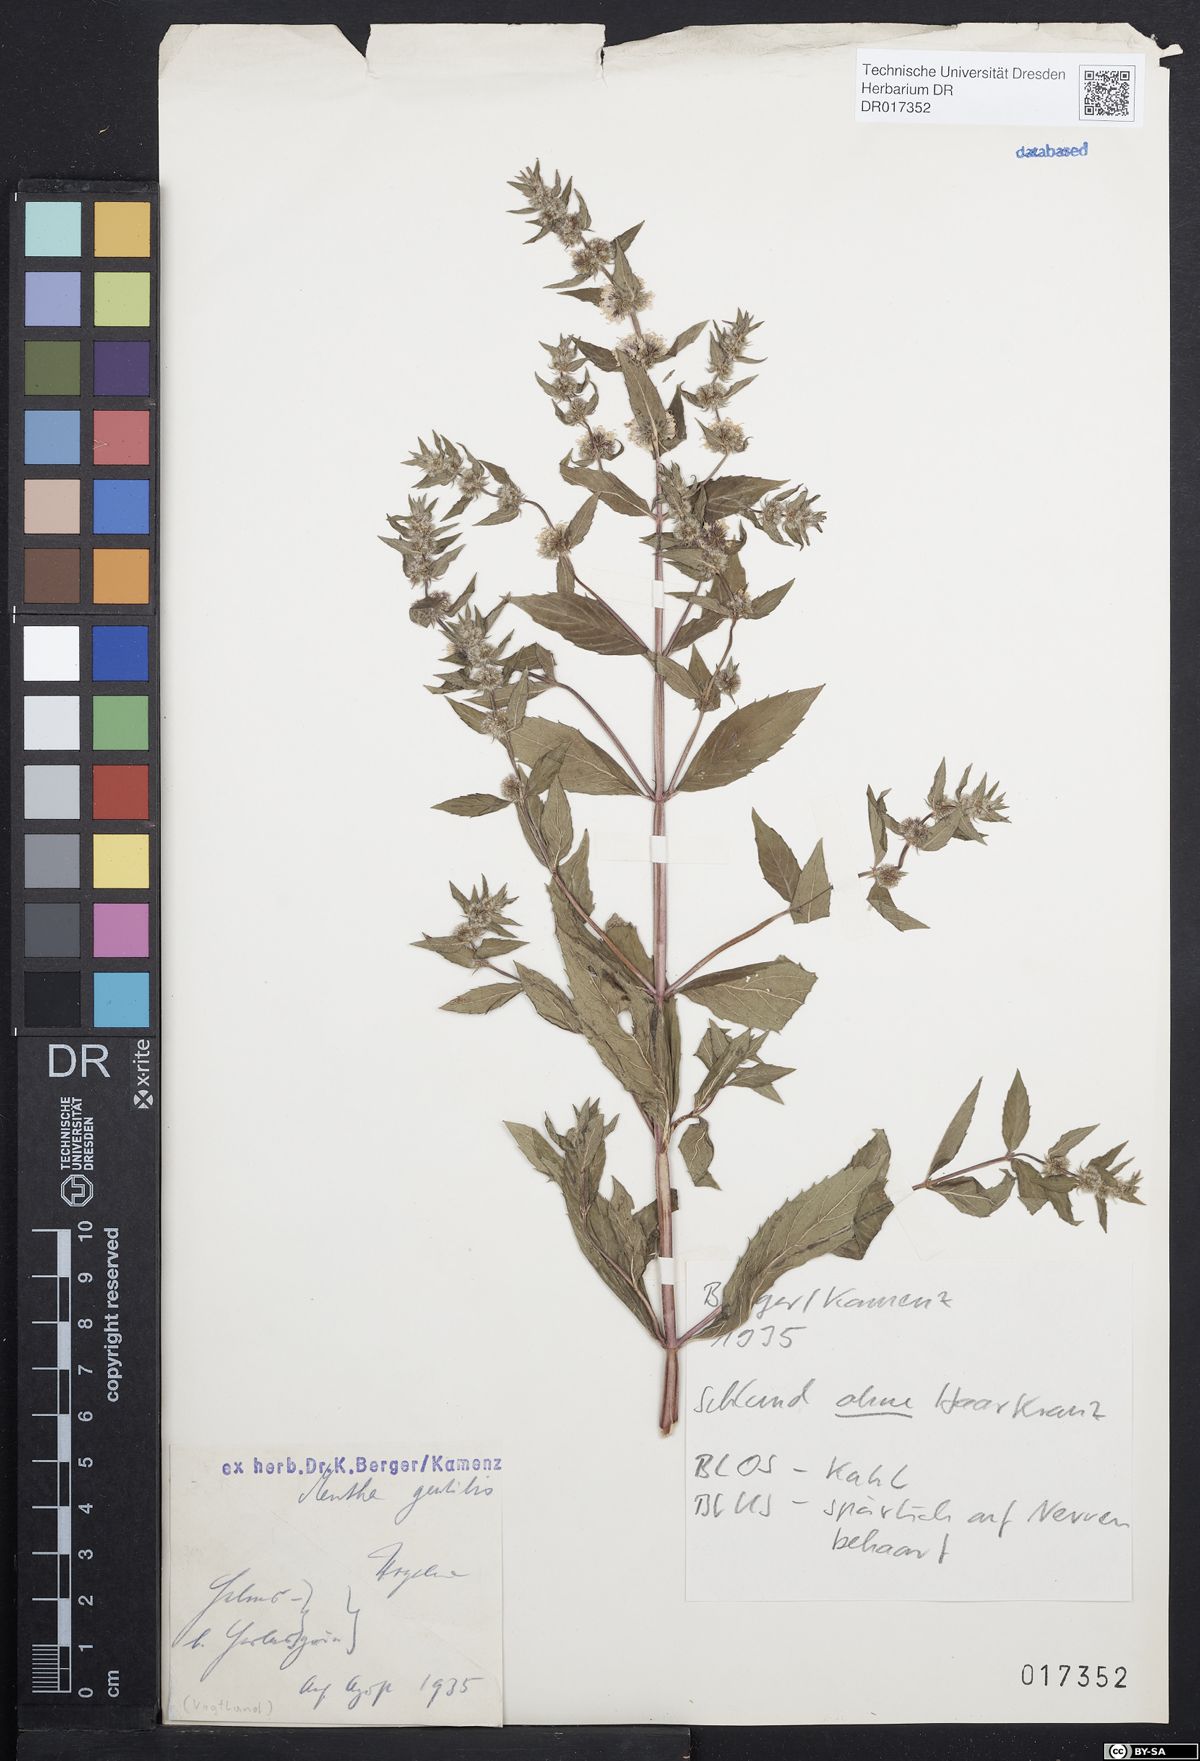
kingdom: Plantae
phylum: Tracheophyta
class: Magnoliopsida
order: Lamiales
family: Lamiaceae
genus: Mentha
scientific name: Mentha gracilis
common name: Bushy mint
